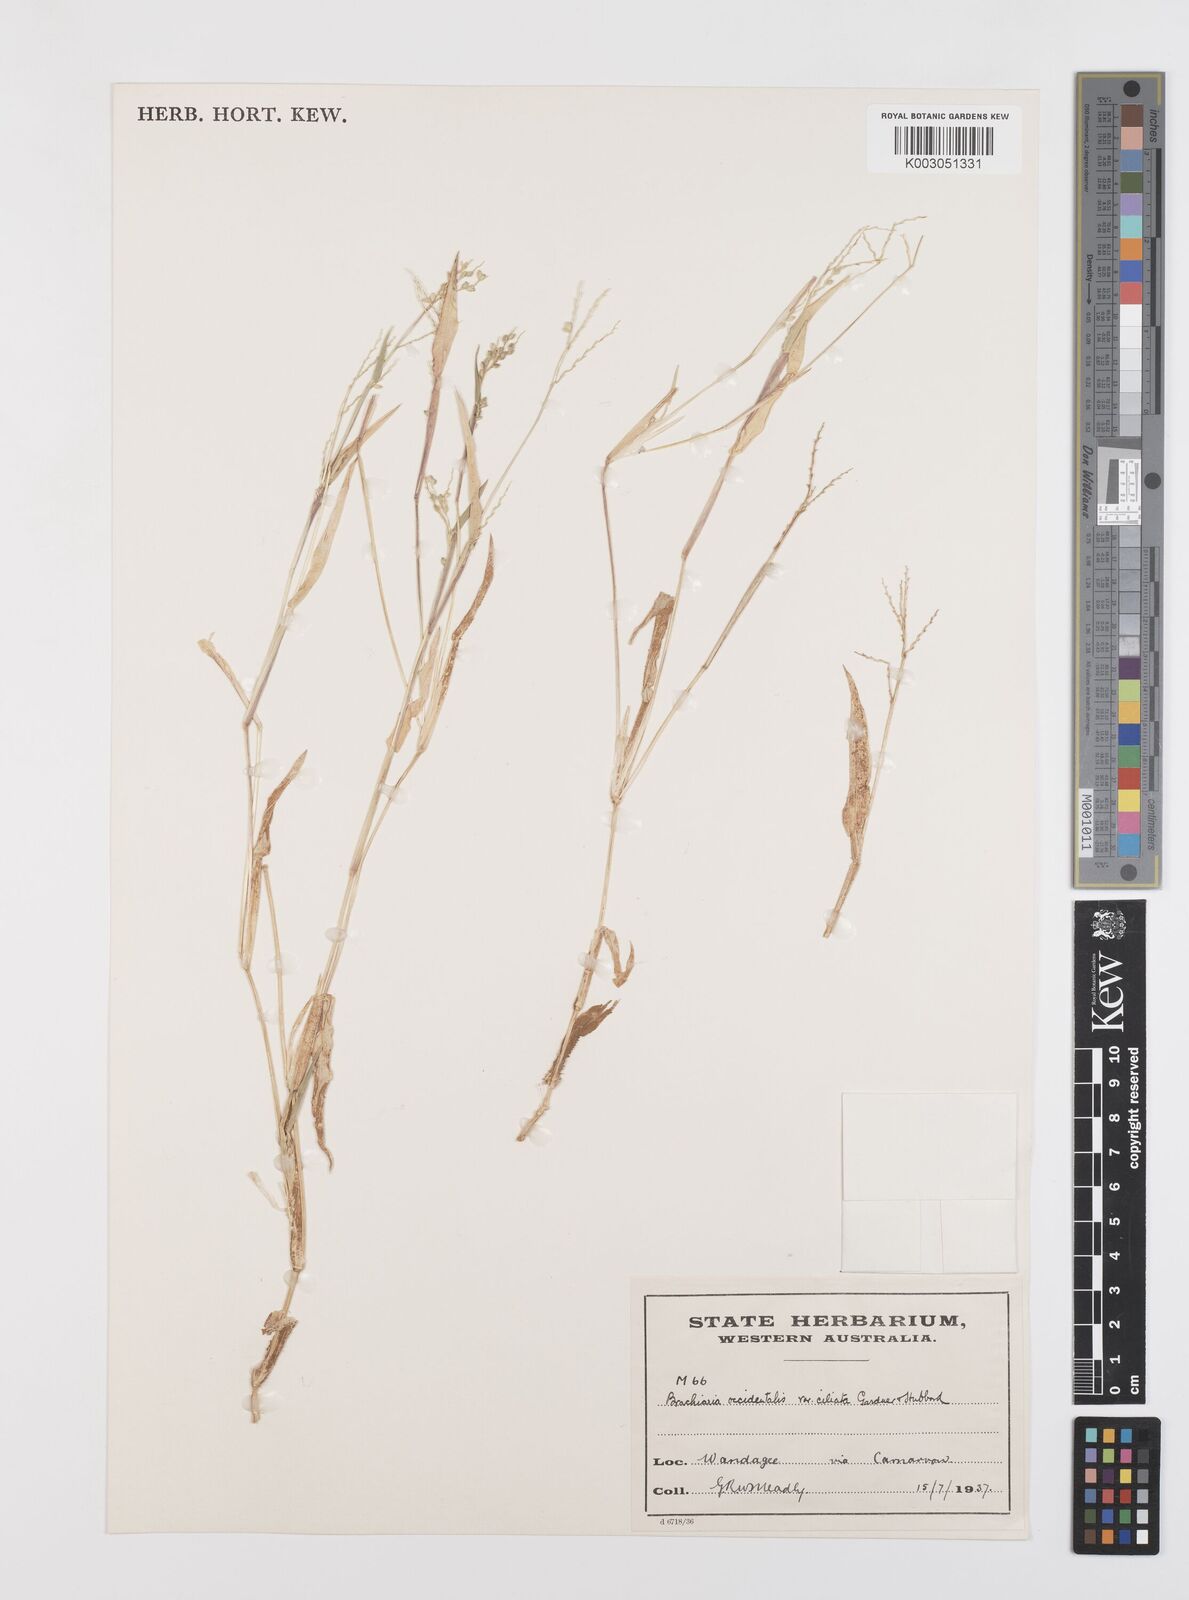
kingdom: Plantae
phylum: Tracheophyta
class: Liliopsida
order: Poales
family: Poaceae
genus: Urochloa
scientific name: Urochloa occidentalis
